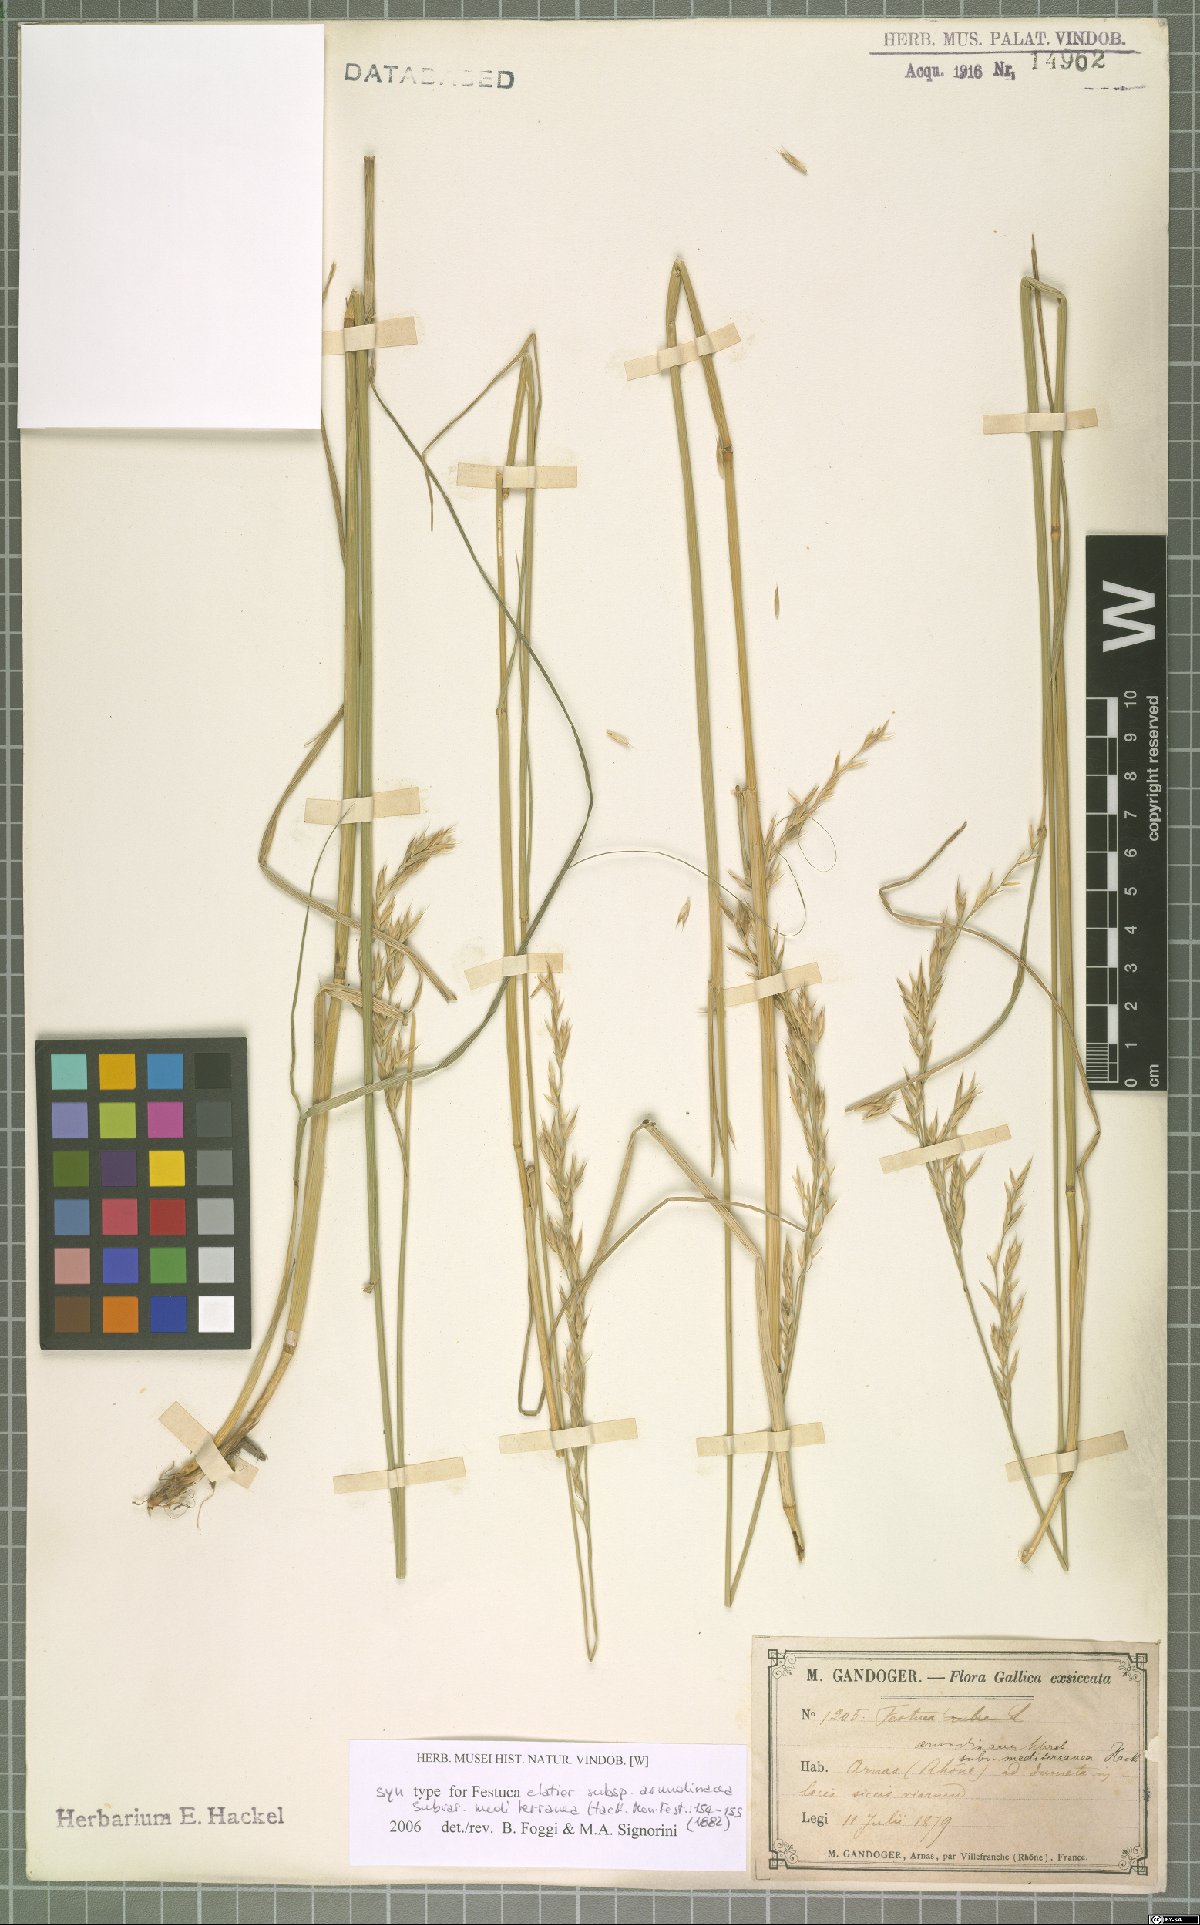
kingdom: Plantae
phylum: Tracheophyta
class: Liliopsida
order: Poales
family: Poaceae
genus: Lolium
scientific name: Lolium mediterraneum
